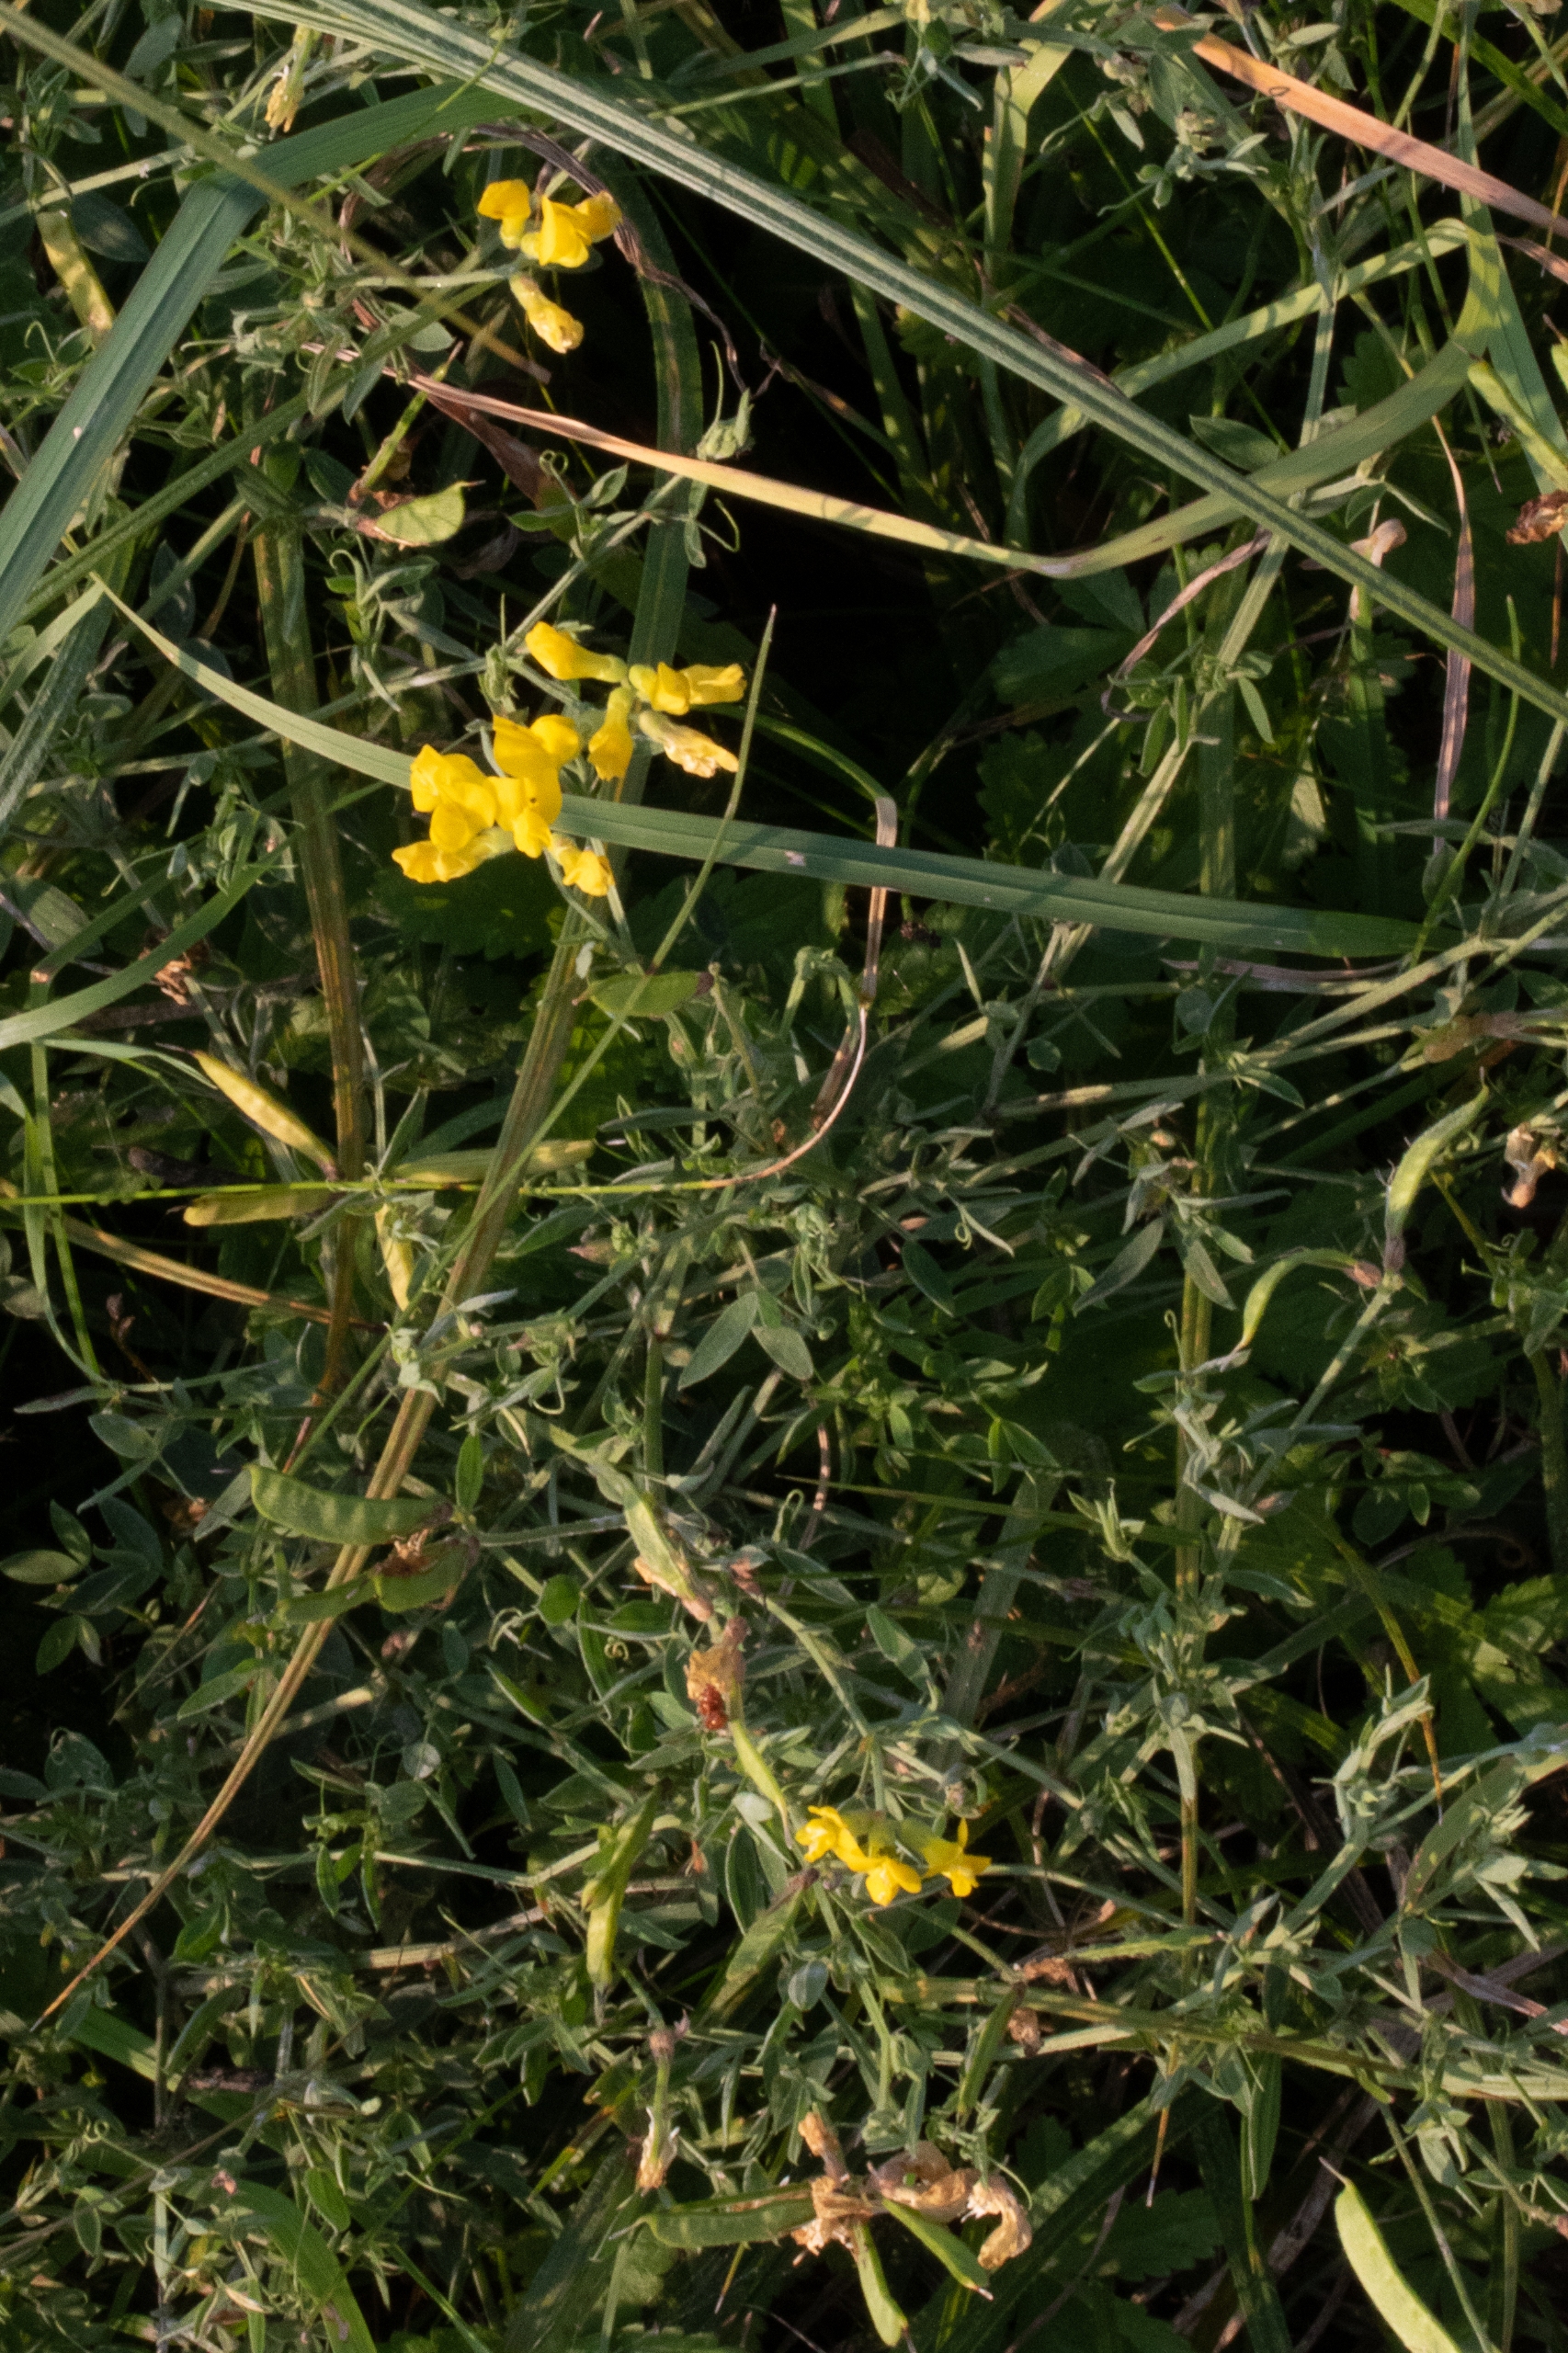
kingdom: Plantae
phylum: Tracheophyta
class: Magnoliopsida
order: Fabales
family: Fabaceae
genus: Lathyrus
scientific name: Lathyrus pratensis
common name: Gul fladbælg
